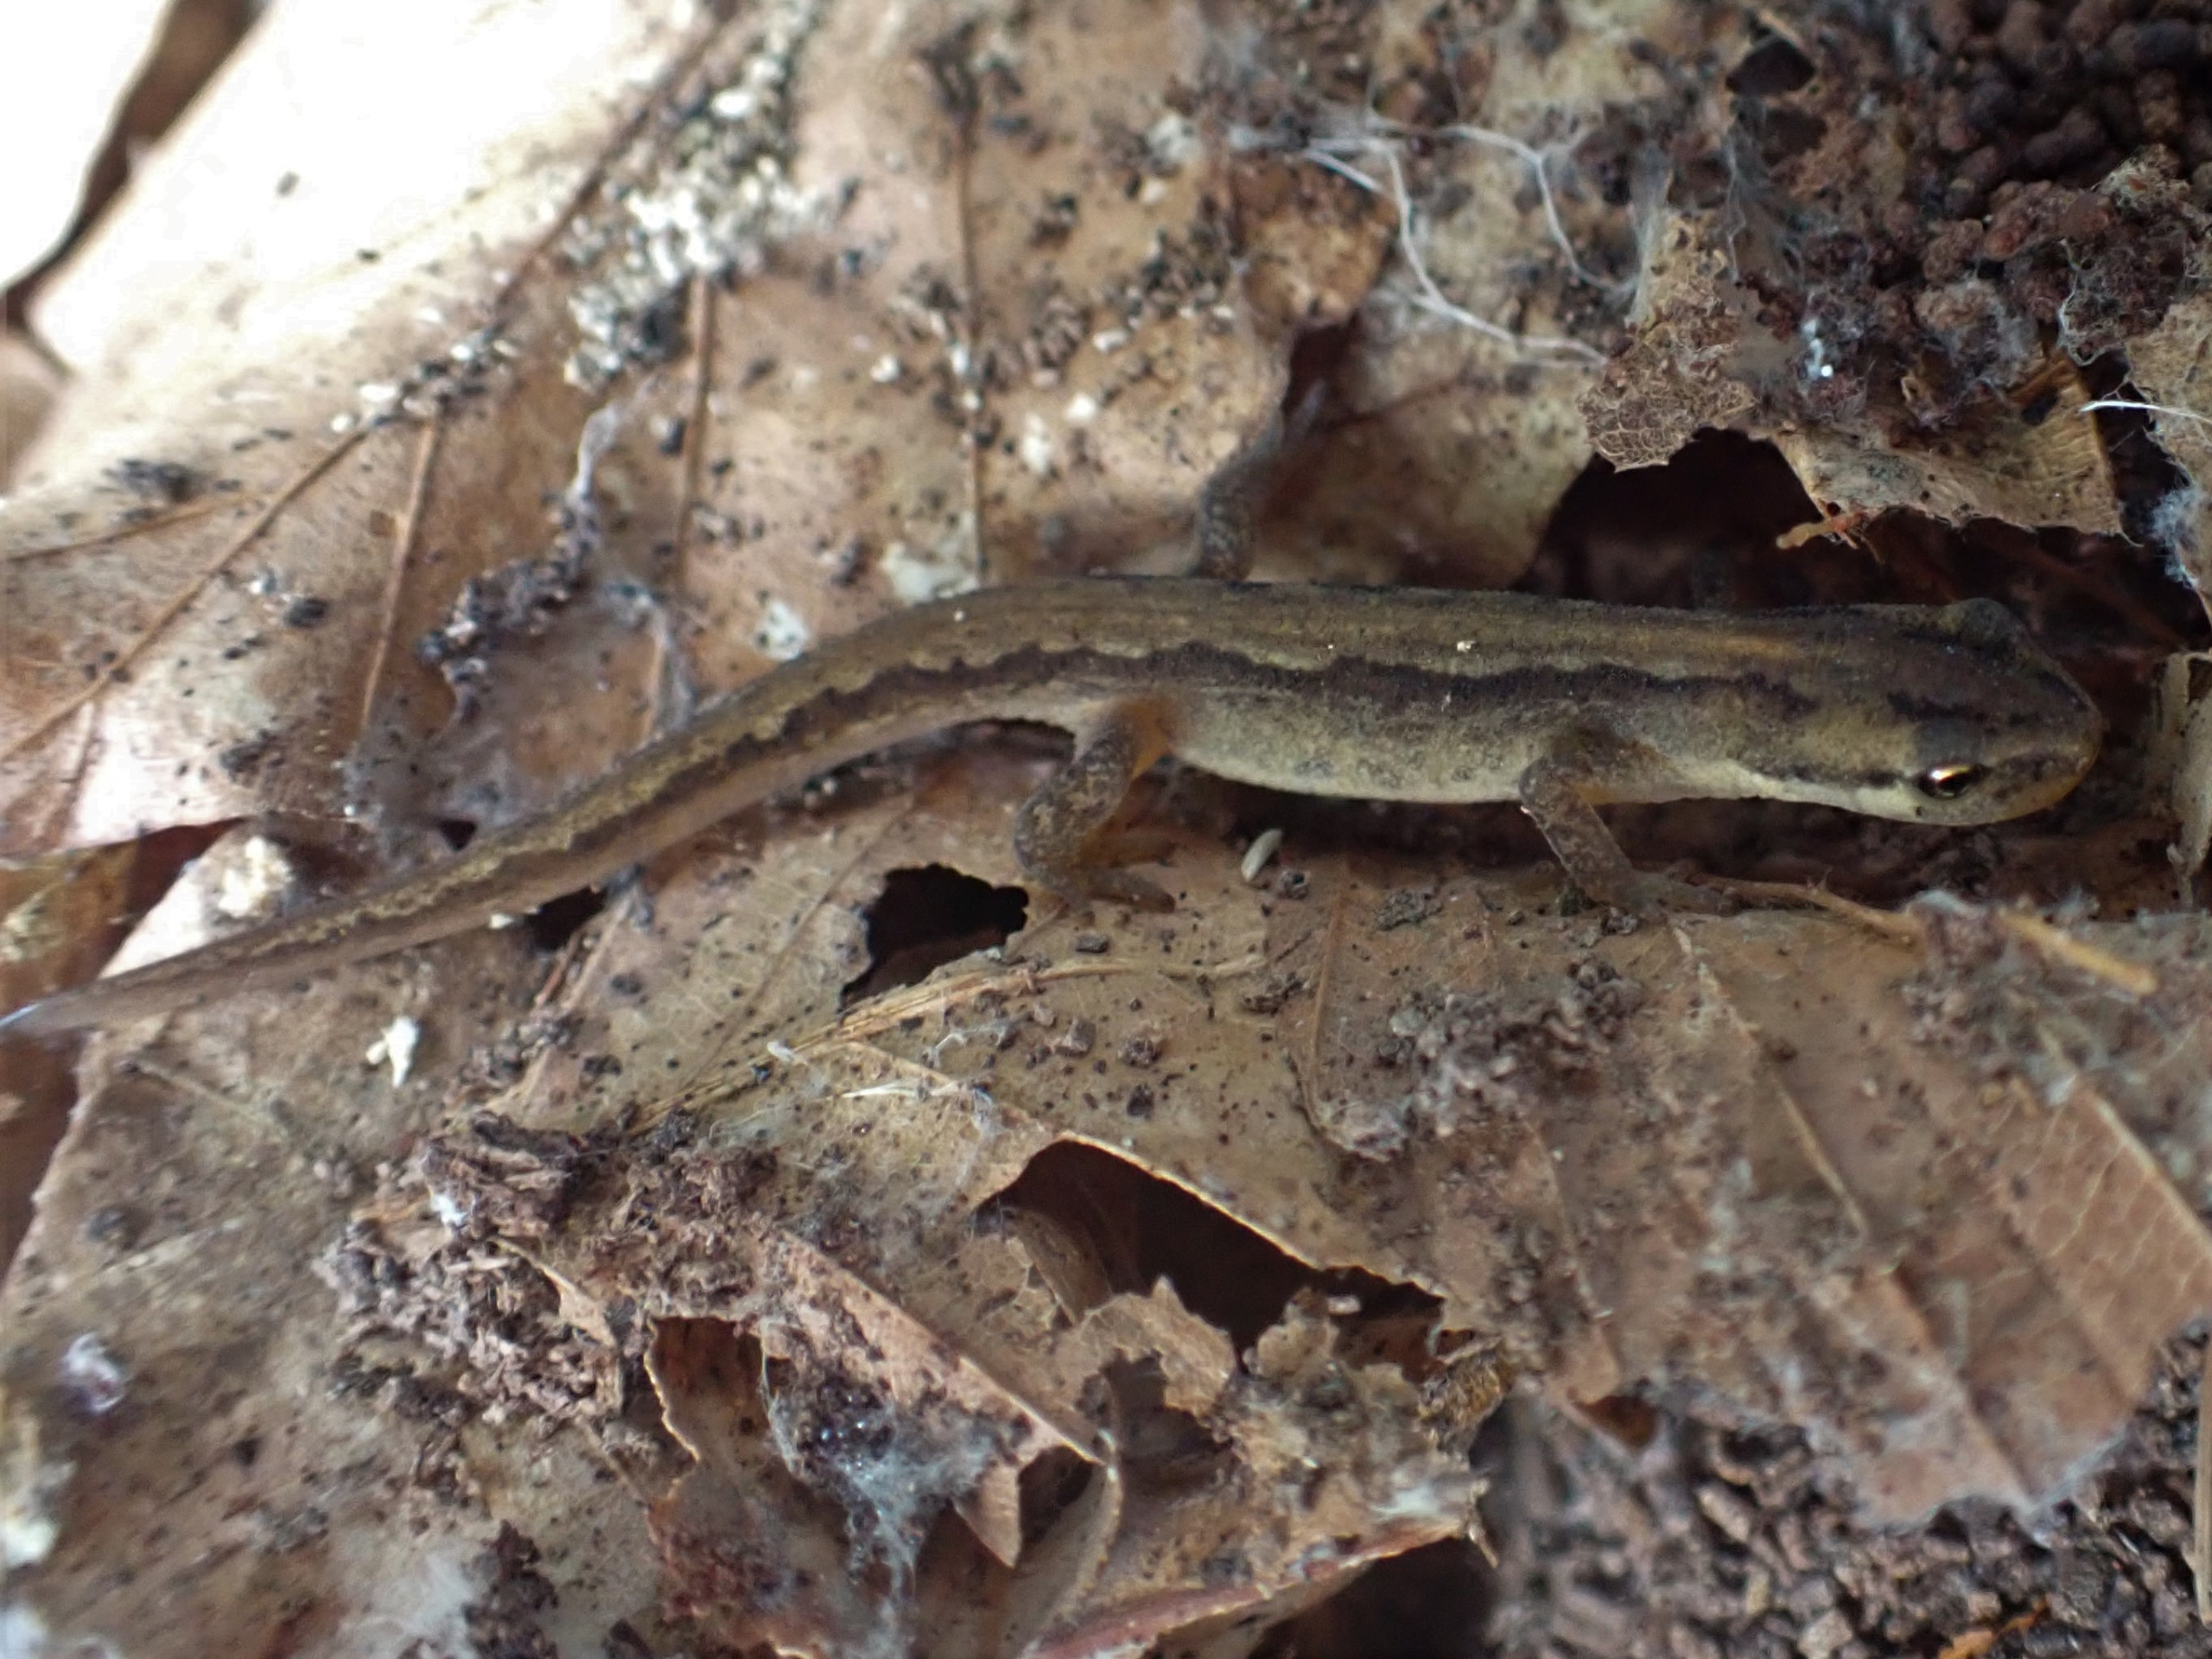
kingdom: Animalia
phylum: Chordata
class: Amphibia
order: Caudata
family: Salamandridae
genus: Lissotriton
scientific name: Lissotriton vulgaris
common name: Lille vandsalamander
